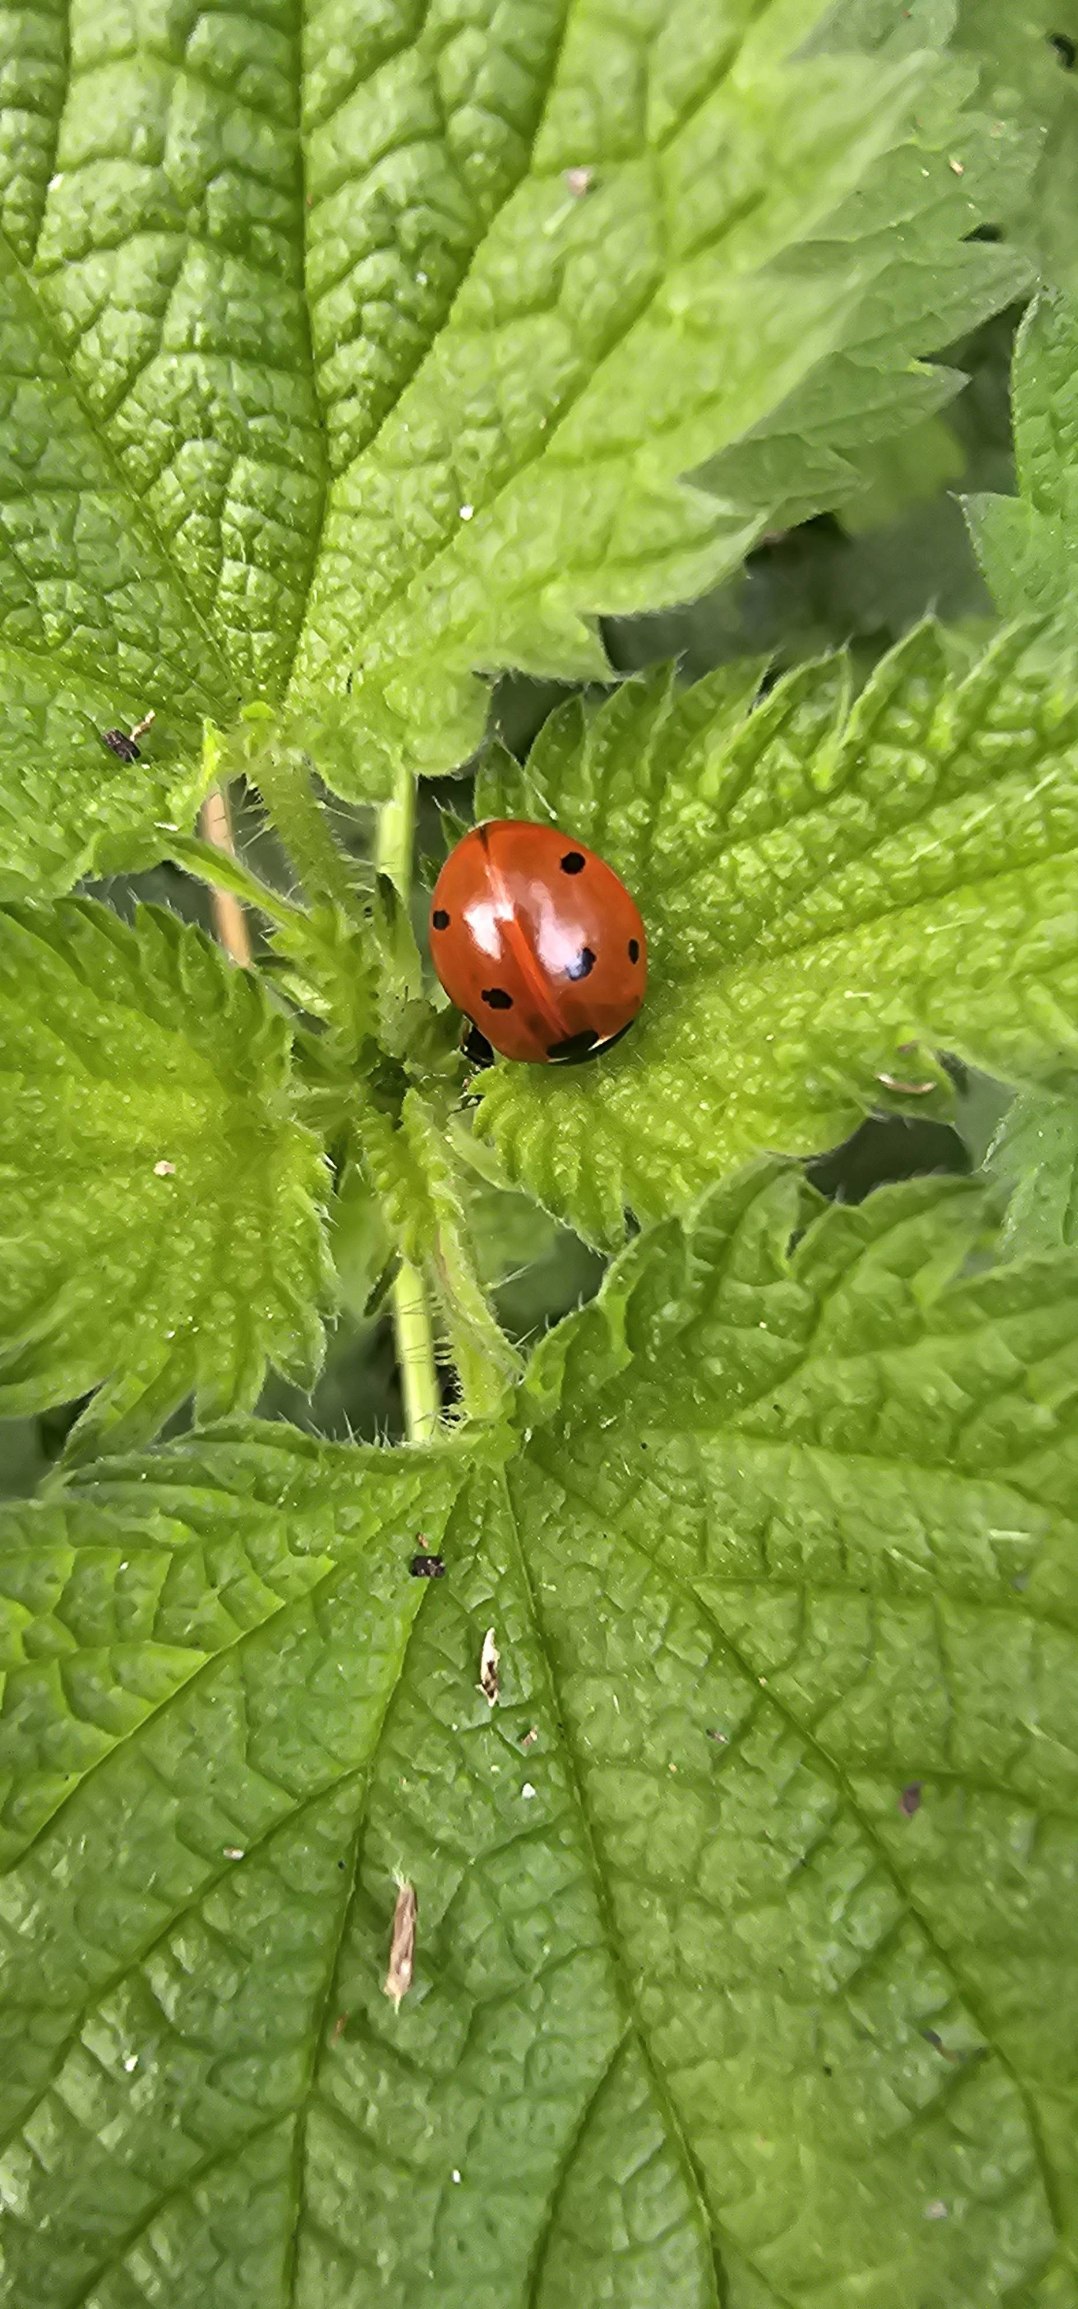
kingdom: Animalia
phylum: Arthropoda
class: Insecta
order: Coleoptera
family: Coccinellidae
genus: Coccinella
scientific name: Coccinella septempunctata
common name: Syvplettet mariehøne
